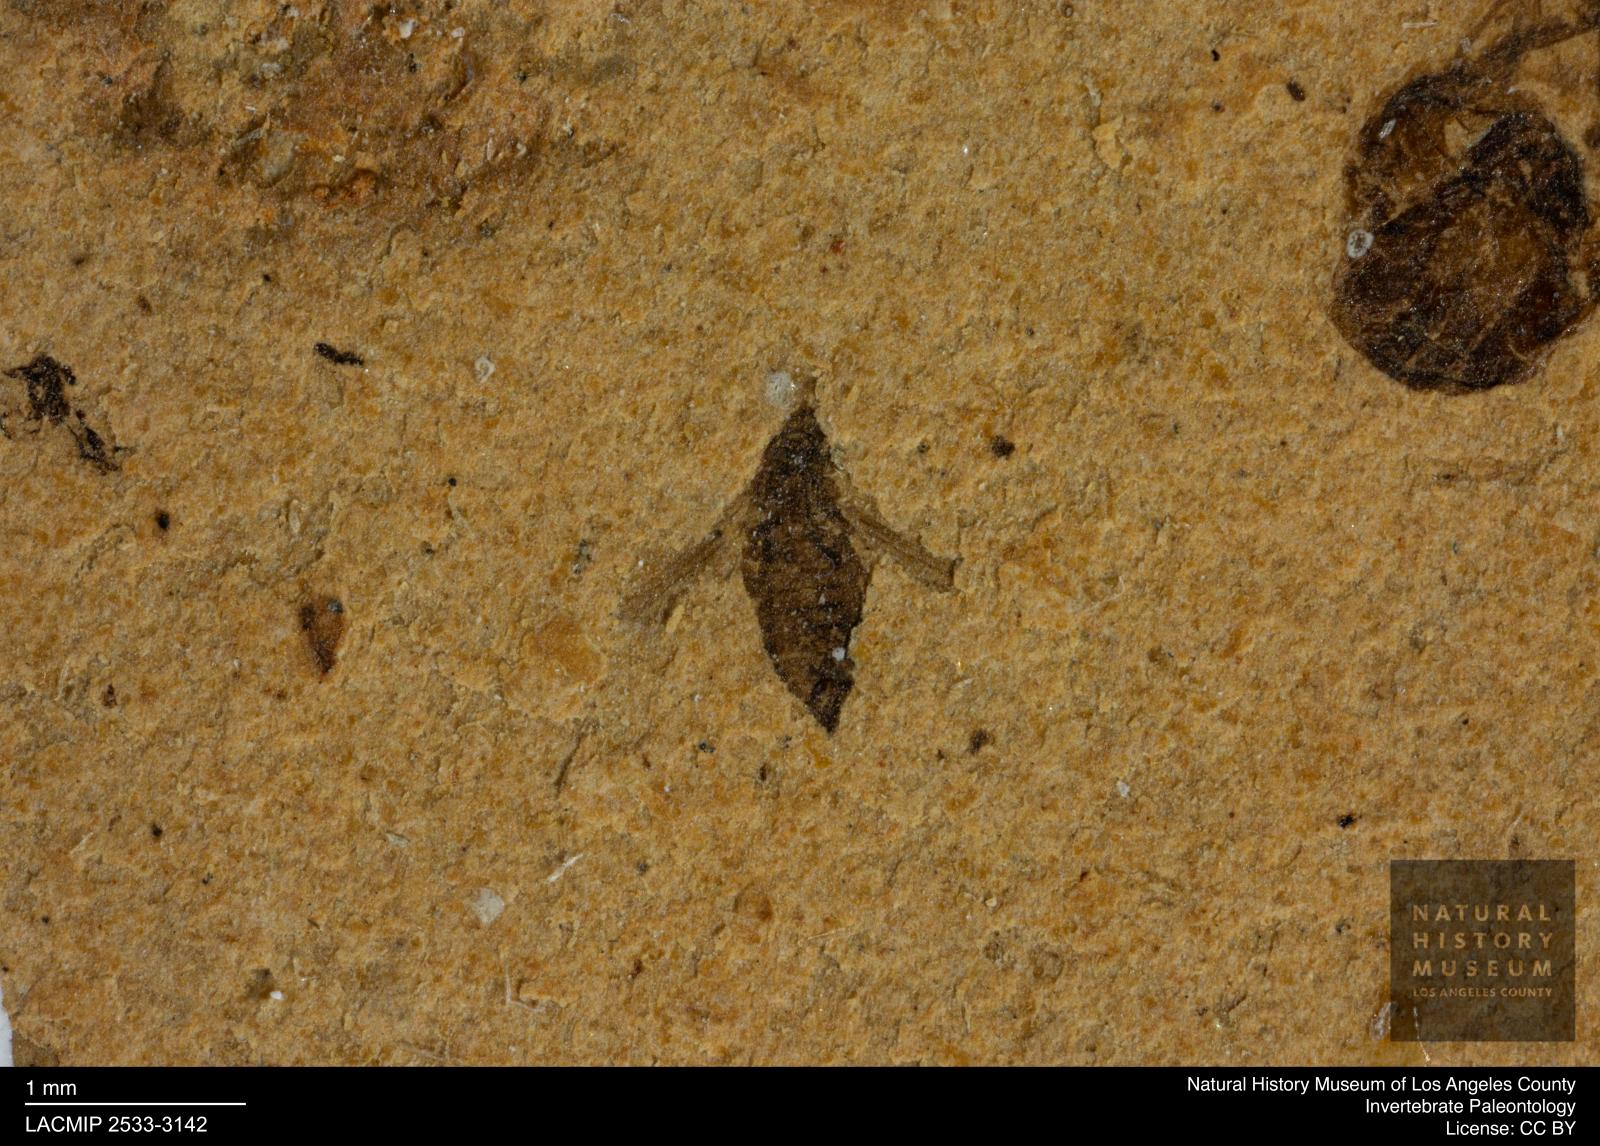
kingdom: Animalia
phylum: Arthropoda
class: Insecta
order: Thysanoptera
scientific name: Thysanoptera
